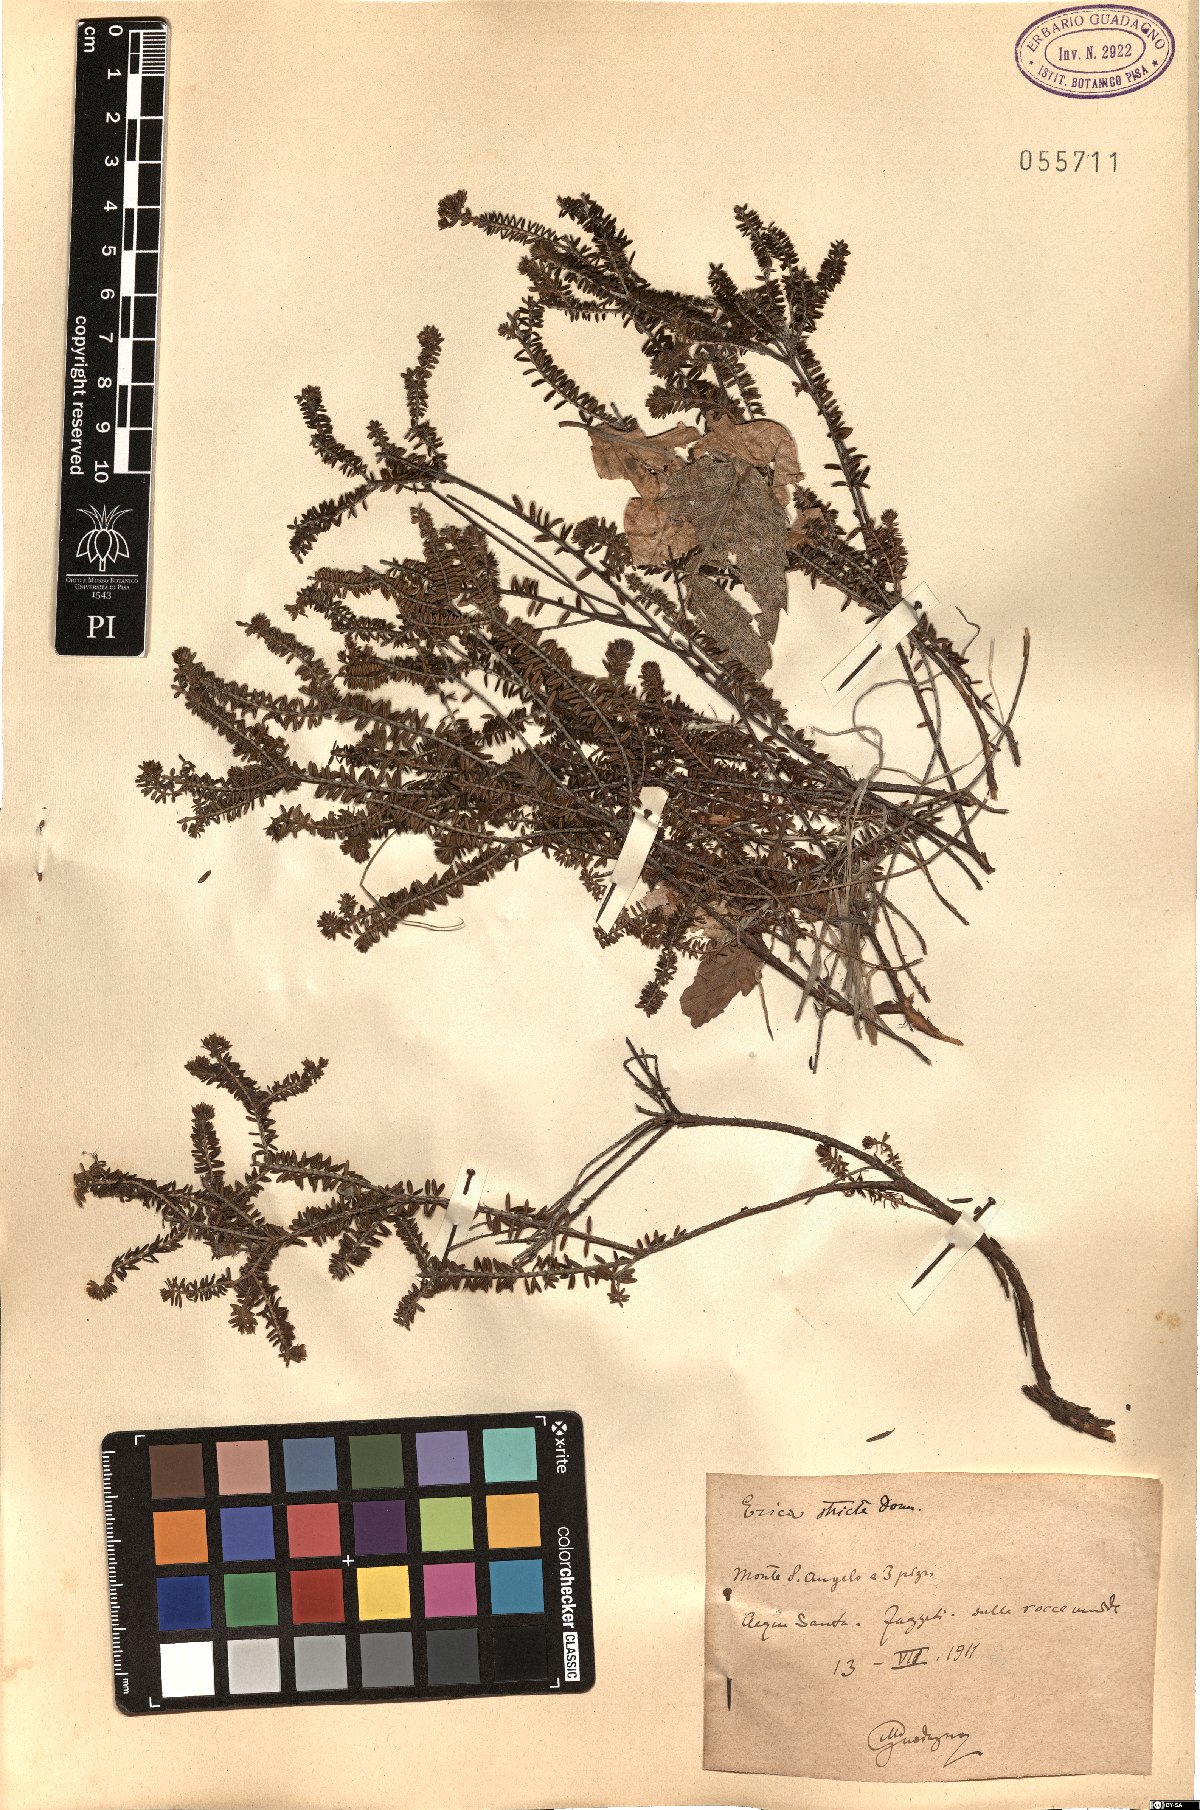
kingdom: Plantae
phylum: Tracheophyta
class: Magnoliopsida
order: Ericales
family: Ericaceae
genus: Erica
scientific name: Erica terminalis
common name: Corsican heath
